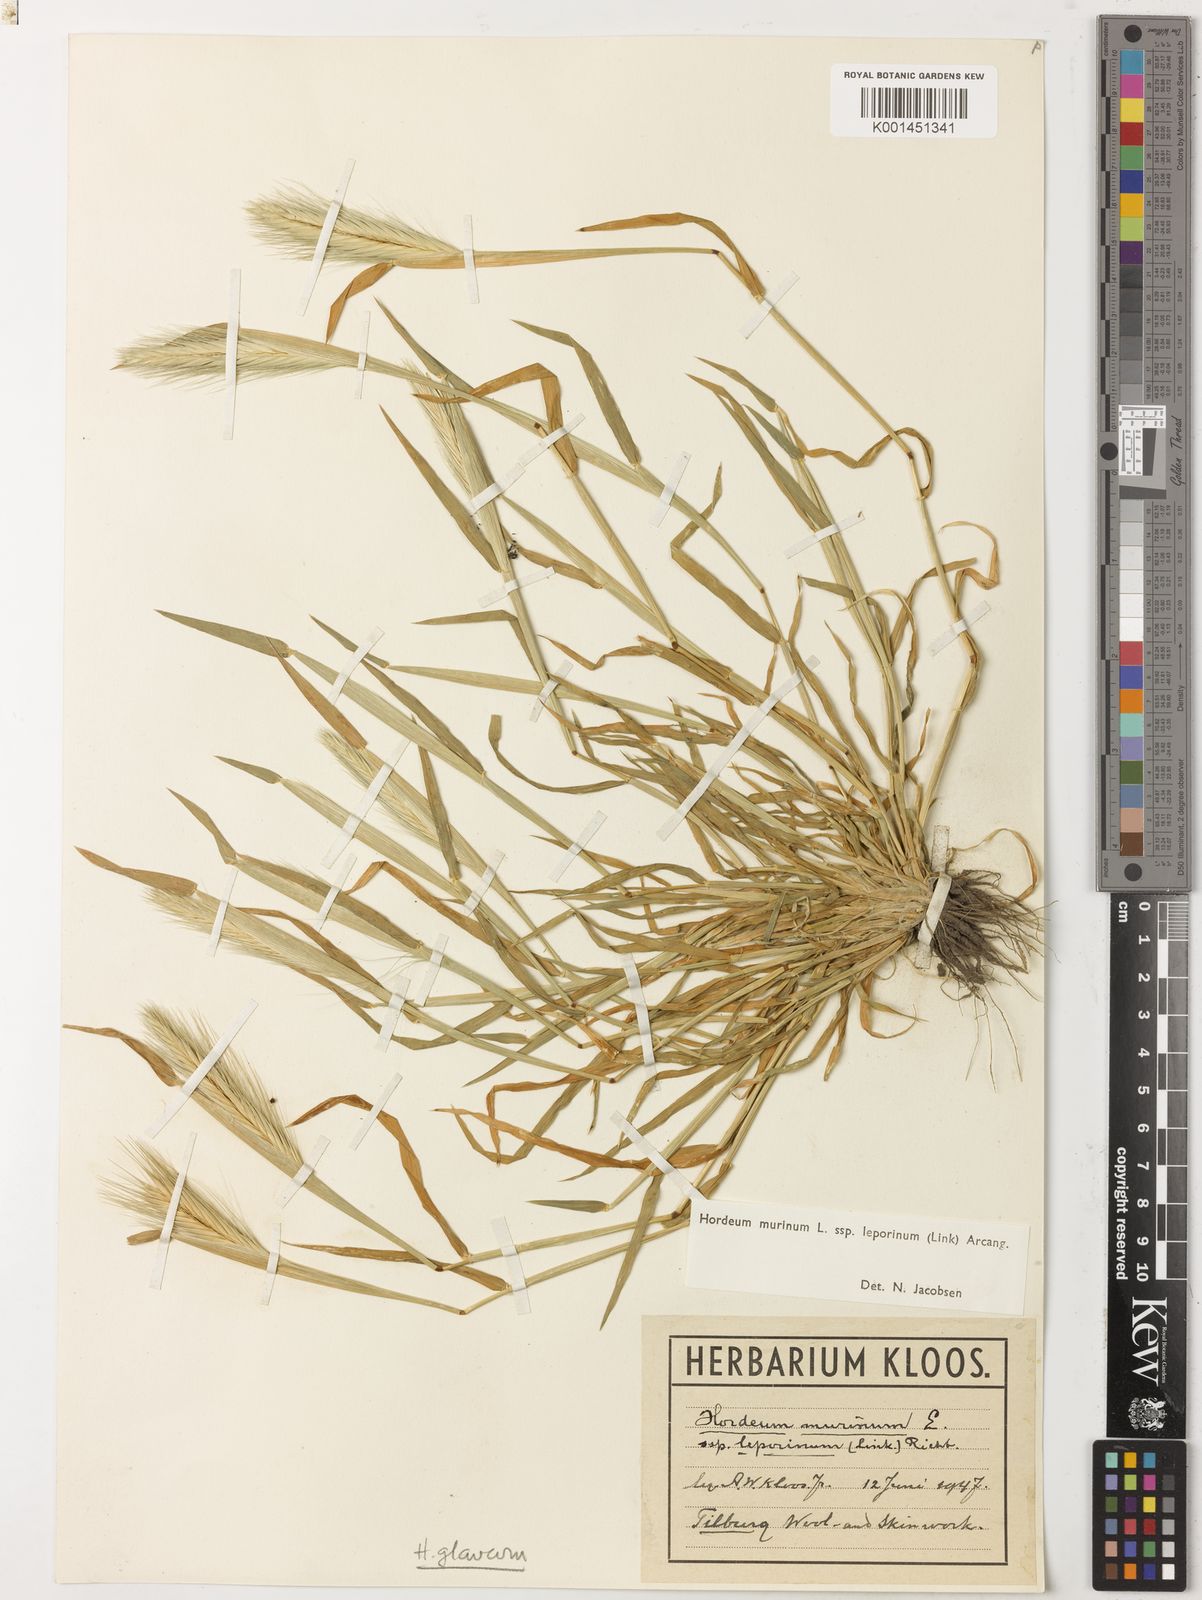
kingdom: Plantae
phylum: Tracheophyta
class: Liliopsida
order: Poales
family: Poaceae
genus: Hordeum
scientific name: Hordeum murinum
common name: Wall barley
